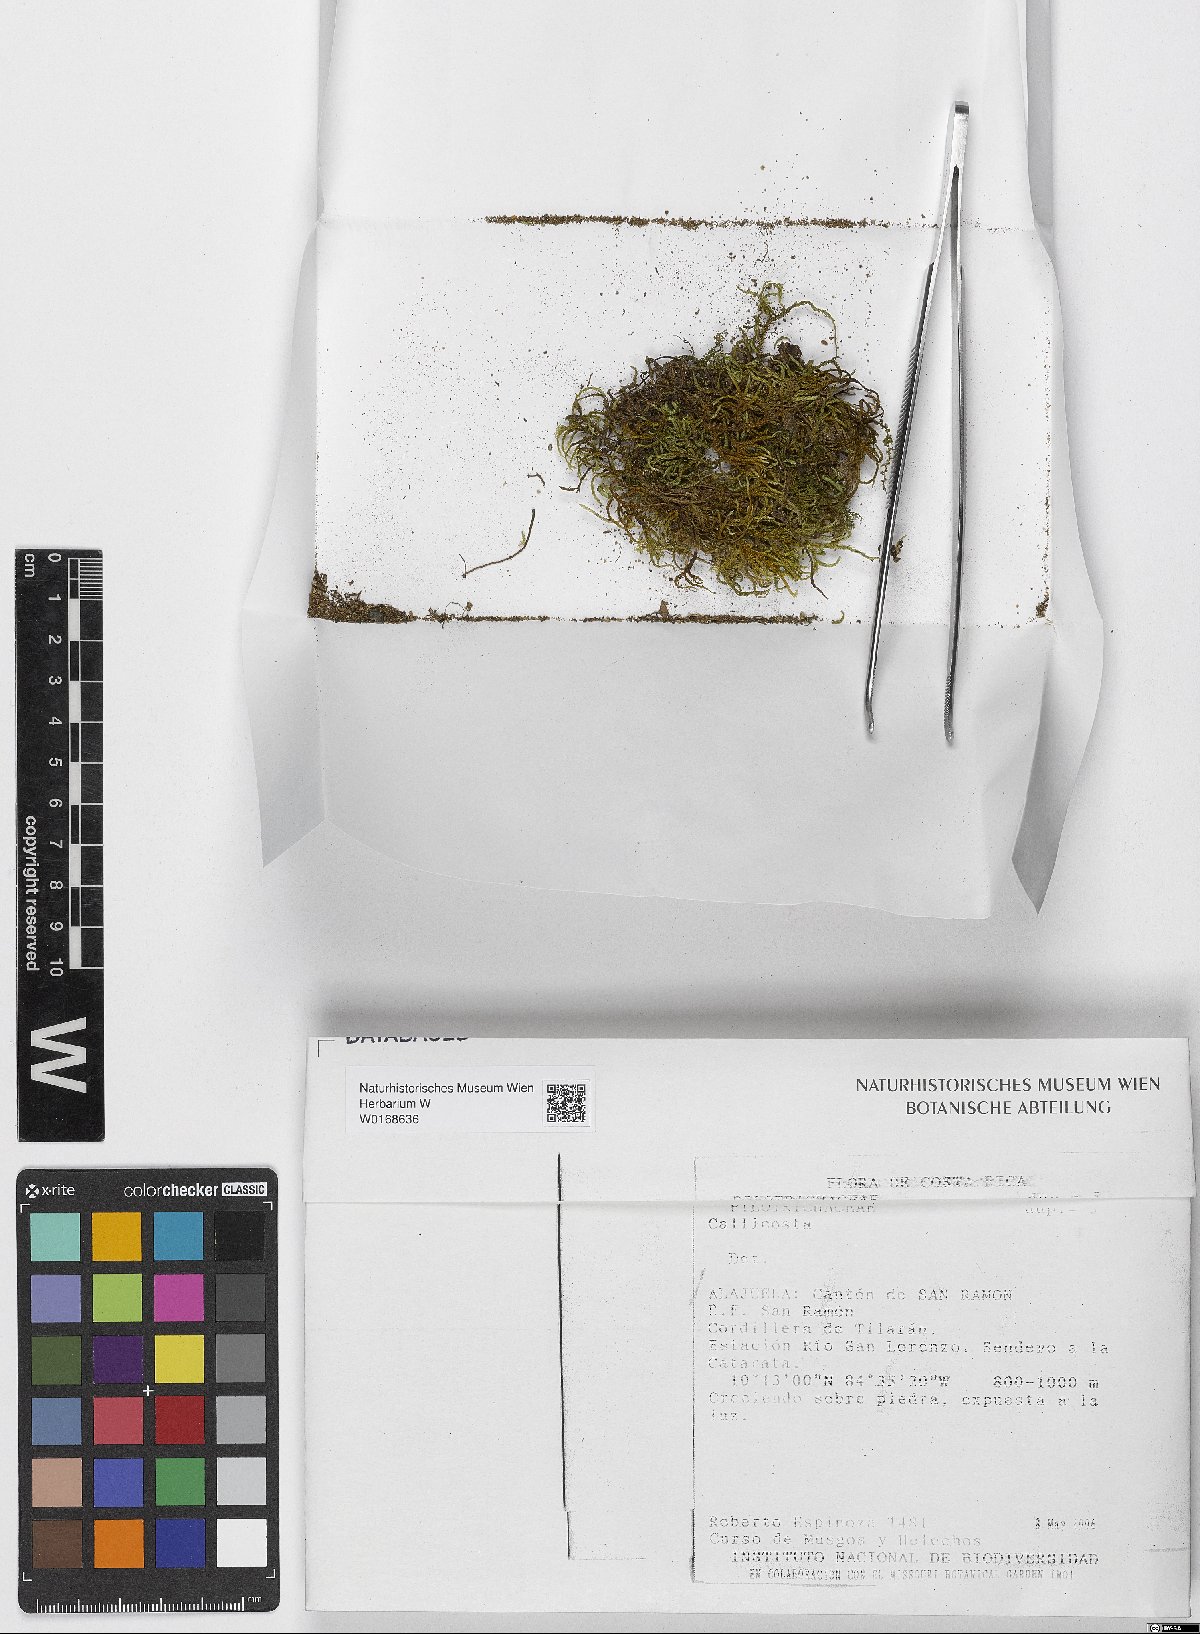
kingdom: Plantae
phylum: Bryophyta
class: Bryopsida
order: Hookeriales
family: Pilotrichaceae
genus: Pilotrichum
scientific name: Pilotrichum
